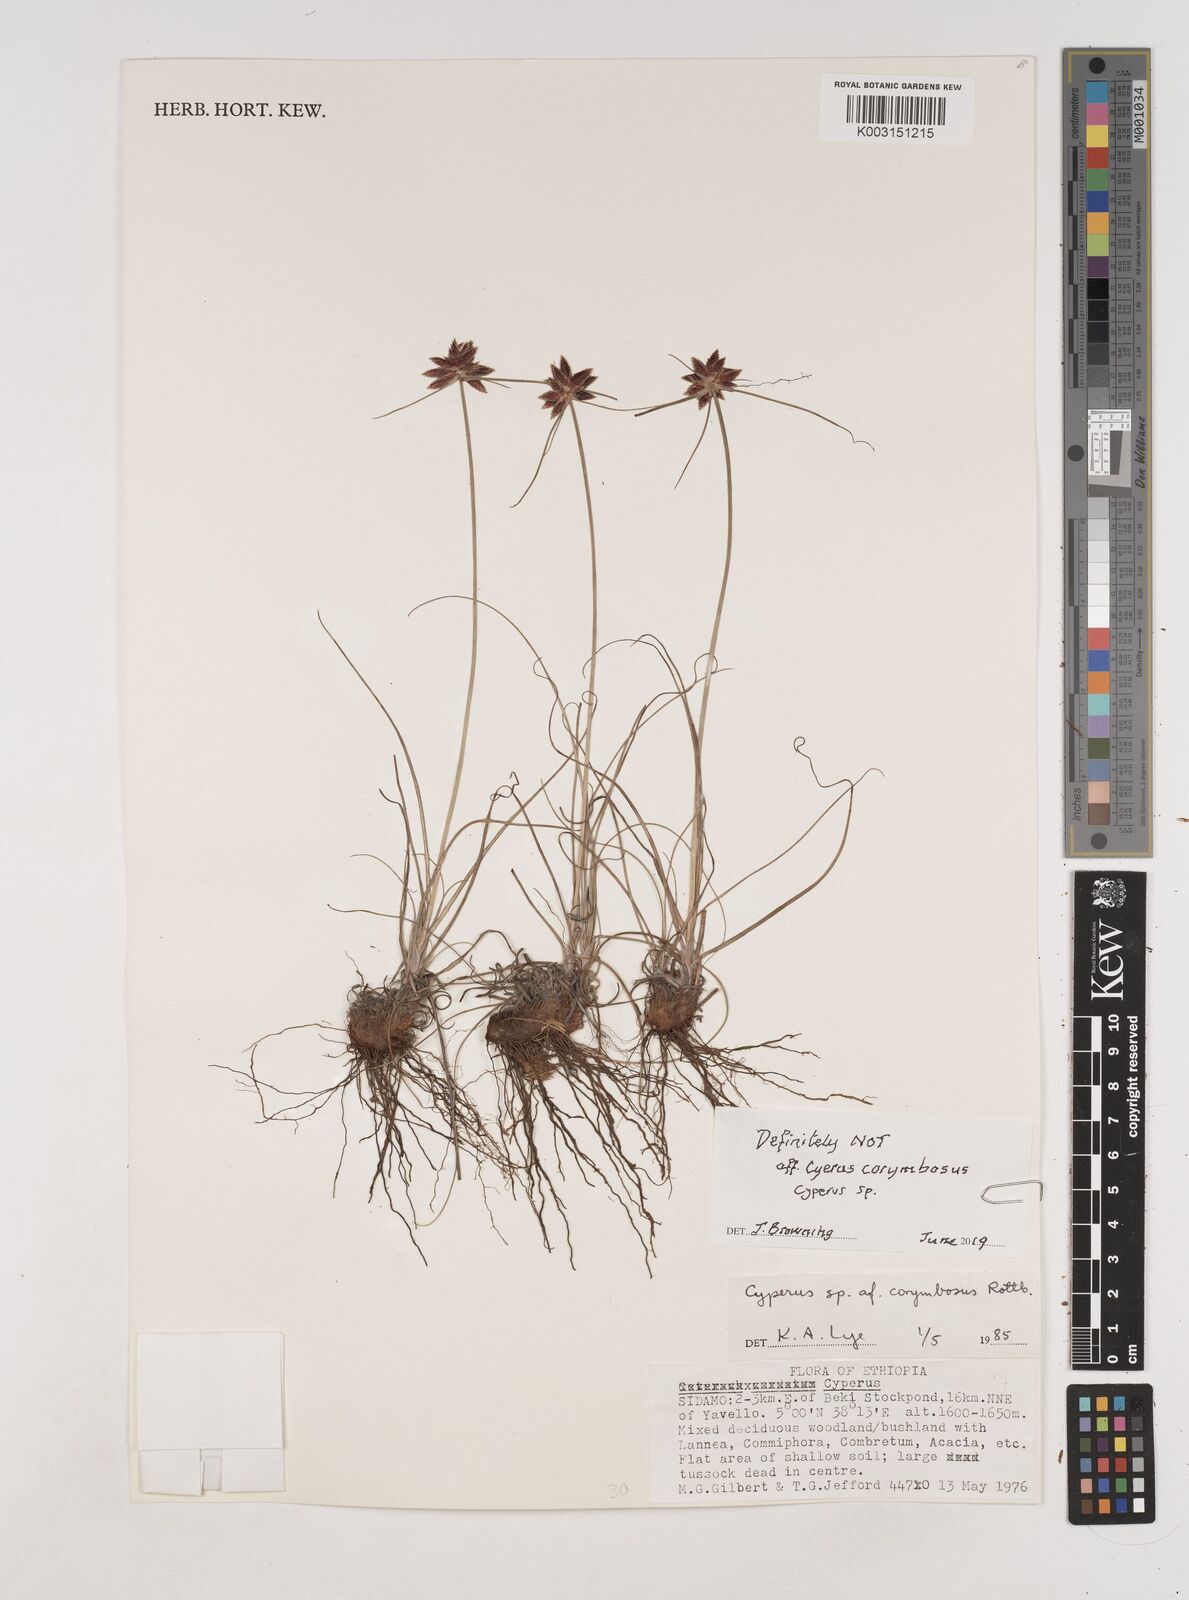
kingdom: Plantae
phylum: Tracheophyta
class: Liliopsida
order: Poales
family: Cyperaceae
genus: Cyperus
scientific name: Cyperus
